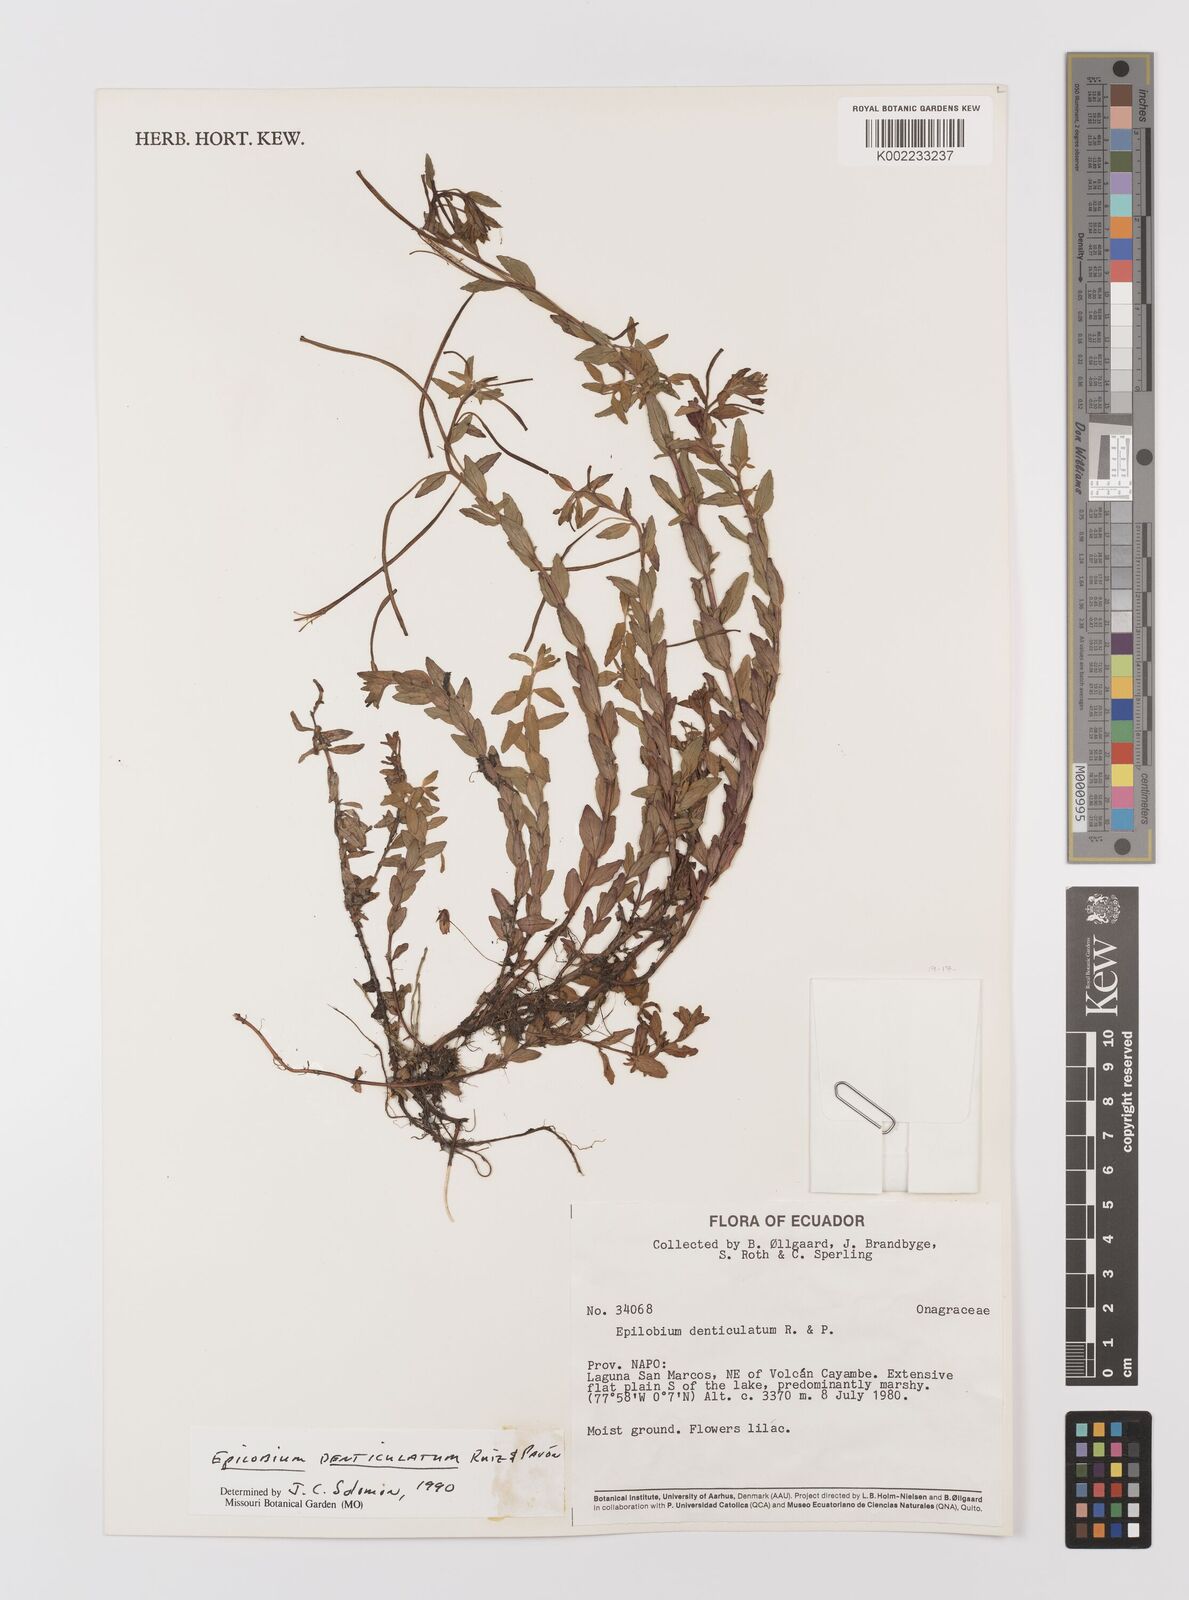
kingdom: Plantae
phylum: Tracheophyta
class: Magnoliopsida
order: Myrtales
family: Onagraceae
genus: Epilobium
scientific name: Epilobium denticulatum
